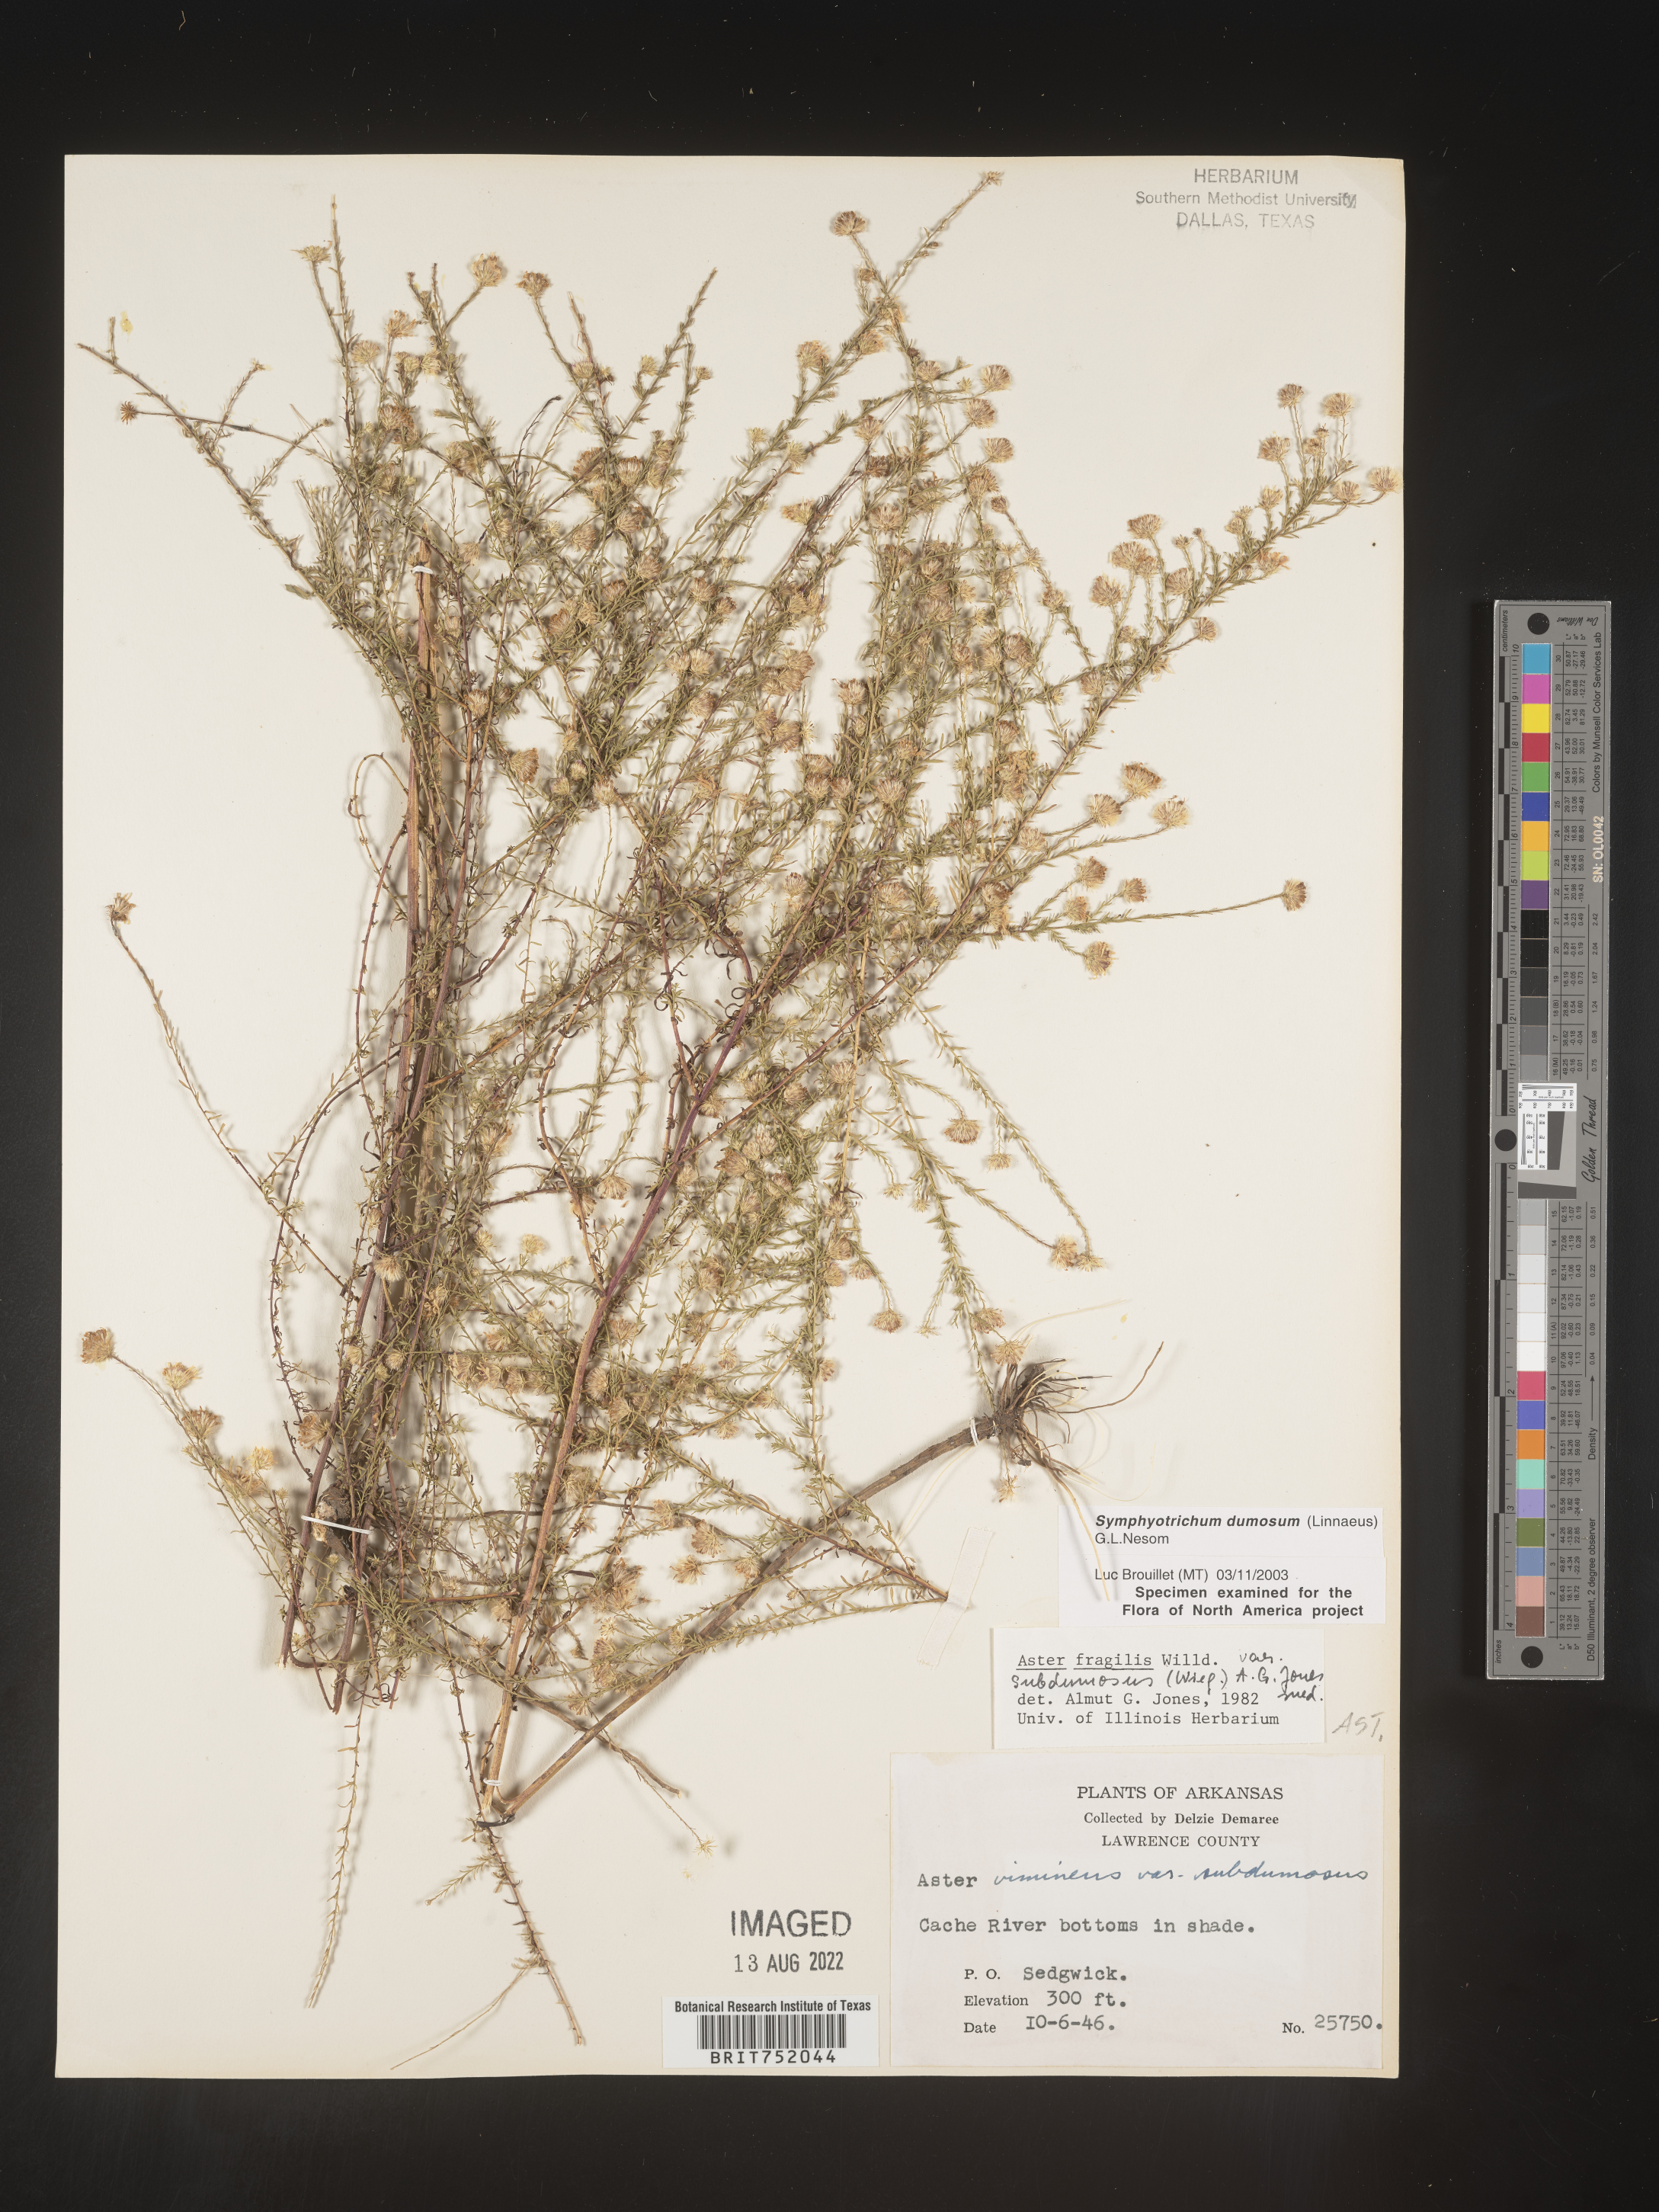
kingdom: Plantae
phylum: Tracheophyta
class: Magnoliopsida
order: Asterales
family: Asteraceae
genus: Symphyotrichum
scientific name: Symphyotrichum dumosum
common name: Bushy aster
